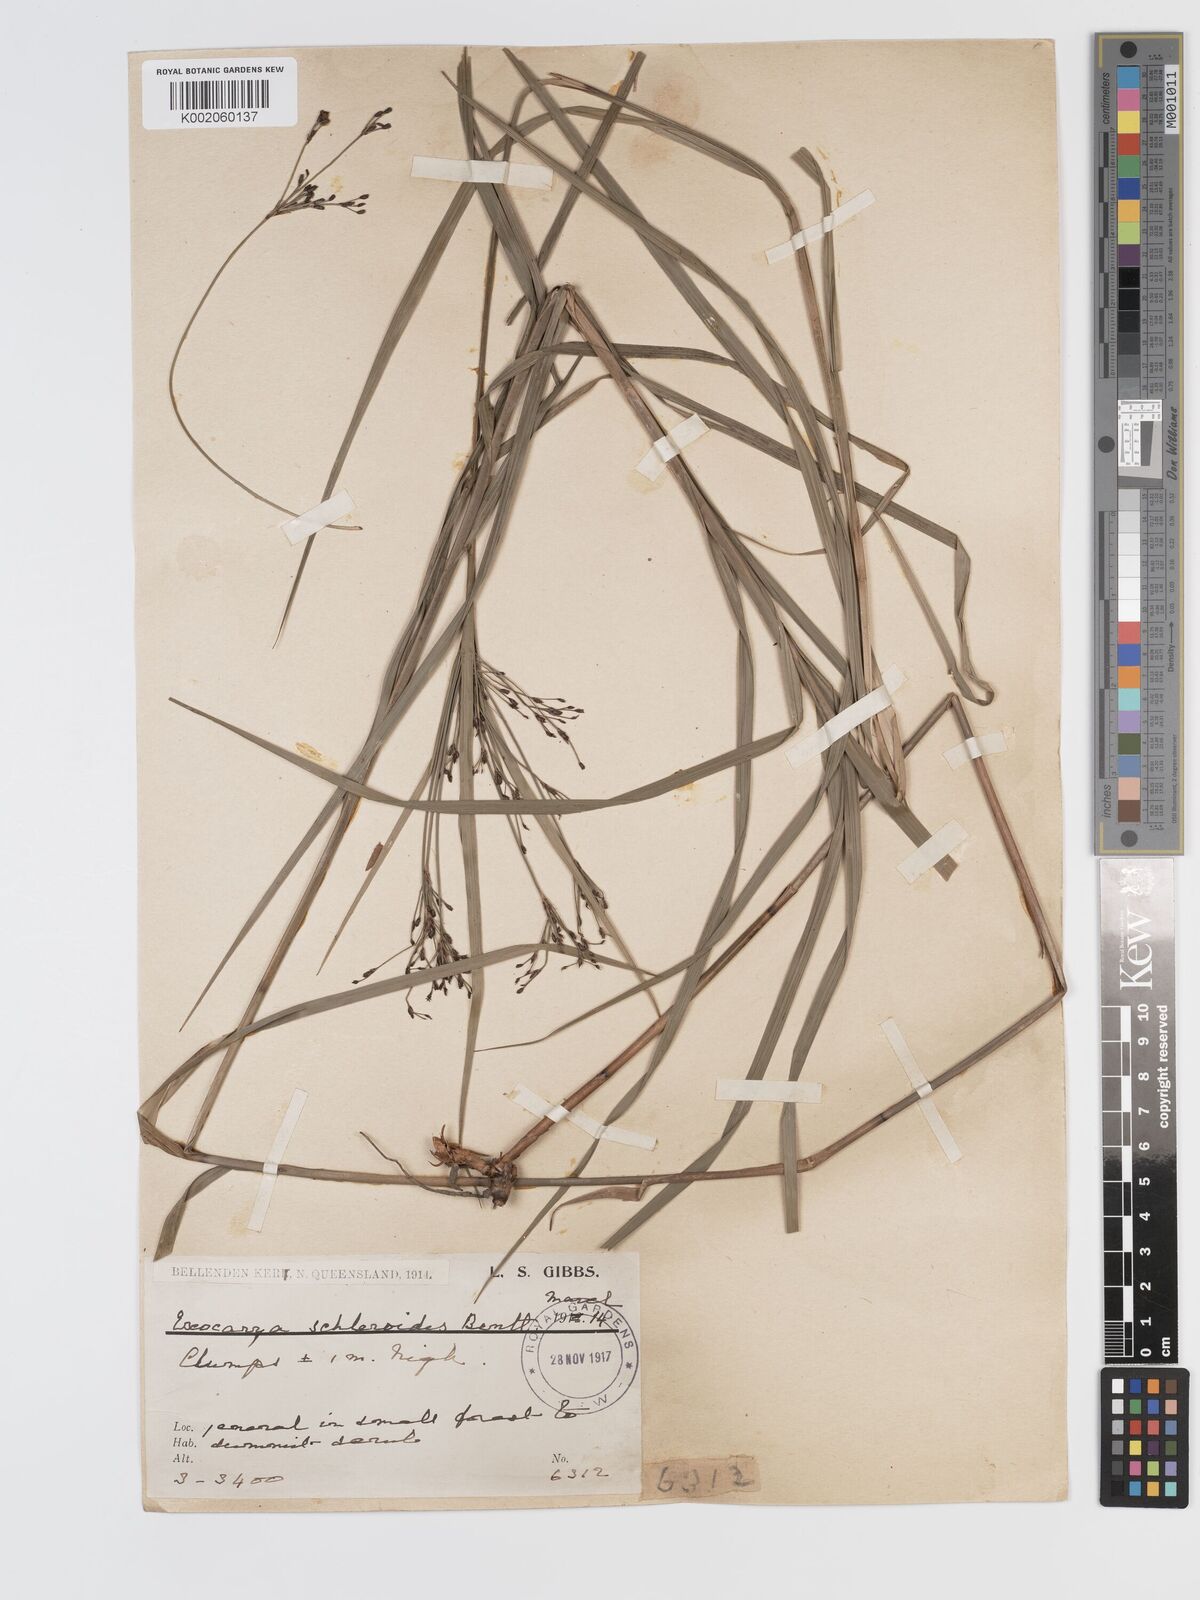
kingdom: Plantae
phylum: Tracheophyta
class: Liliopsida
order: Poales
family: Cyperaceae
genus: Exocarya
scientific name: Exocarya sclerioides
